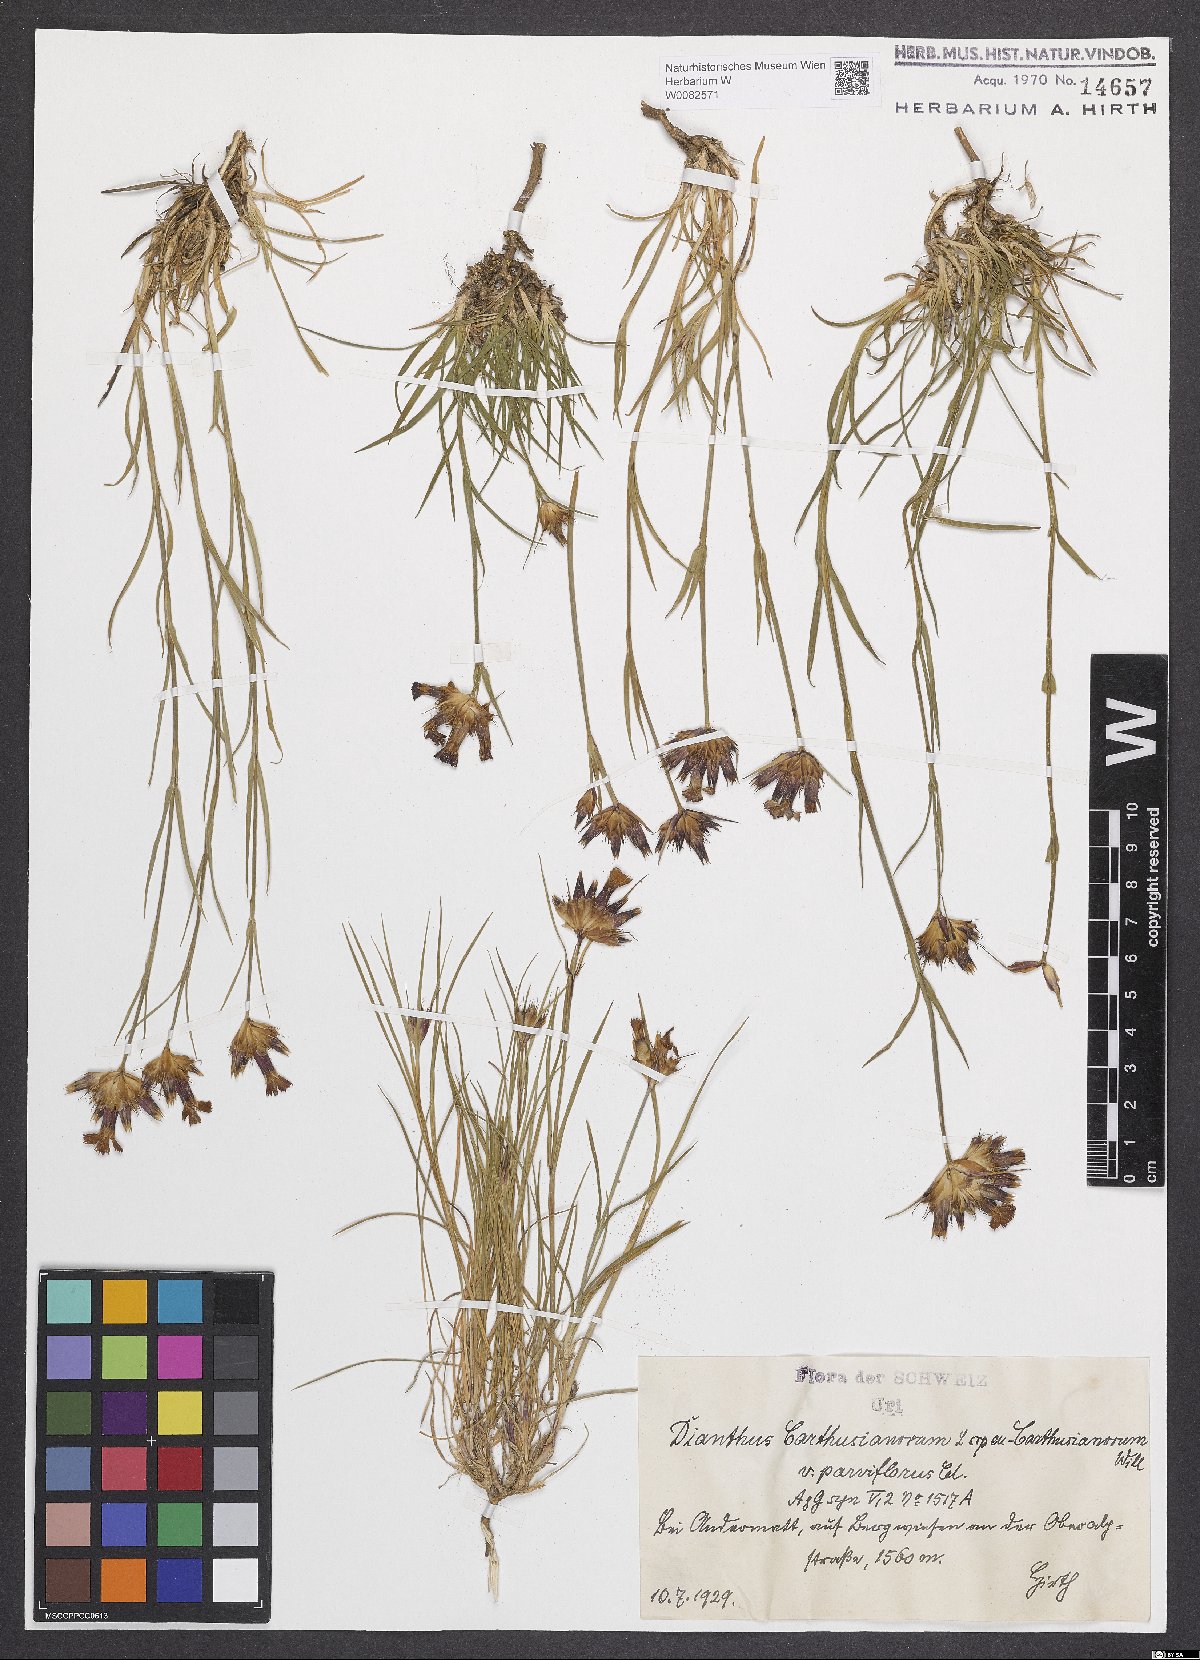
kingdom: Plantae
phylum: Tracheophyta
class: Magnoliopsida
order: Caryophyllales
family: Caryophyllaceae
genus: Dianthus
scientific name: Dianthus carthusianorum
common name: Carthusian pink
